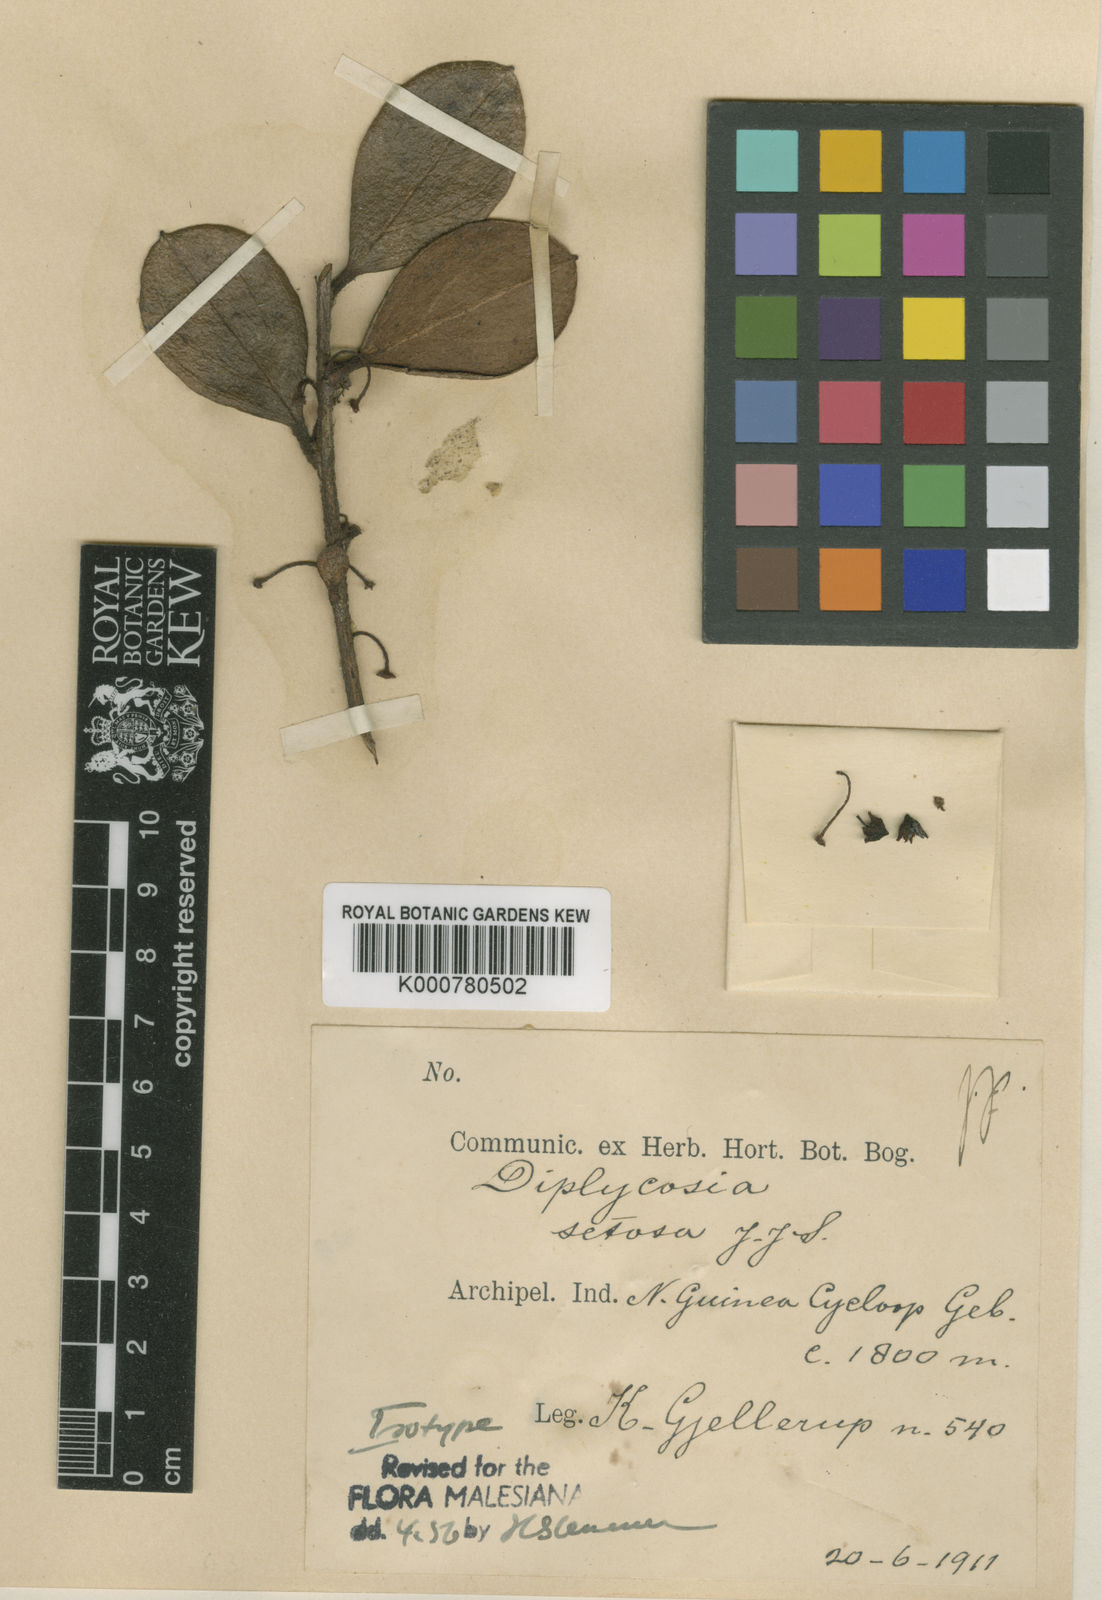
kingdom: Plantae
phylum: Tracheophyta
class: Magnoliopsida
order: Ericales
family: Ericaceae
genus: Gaultheria
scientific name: Gaultheria smithii
